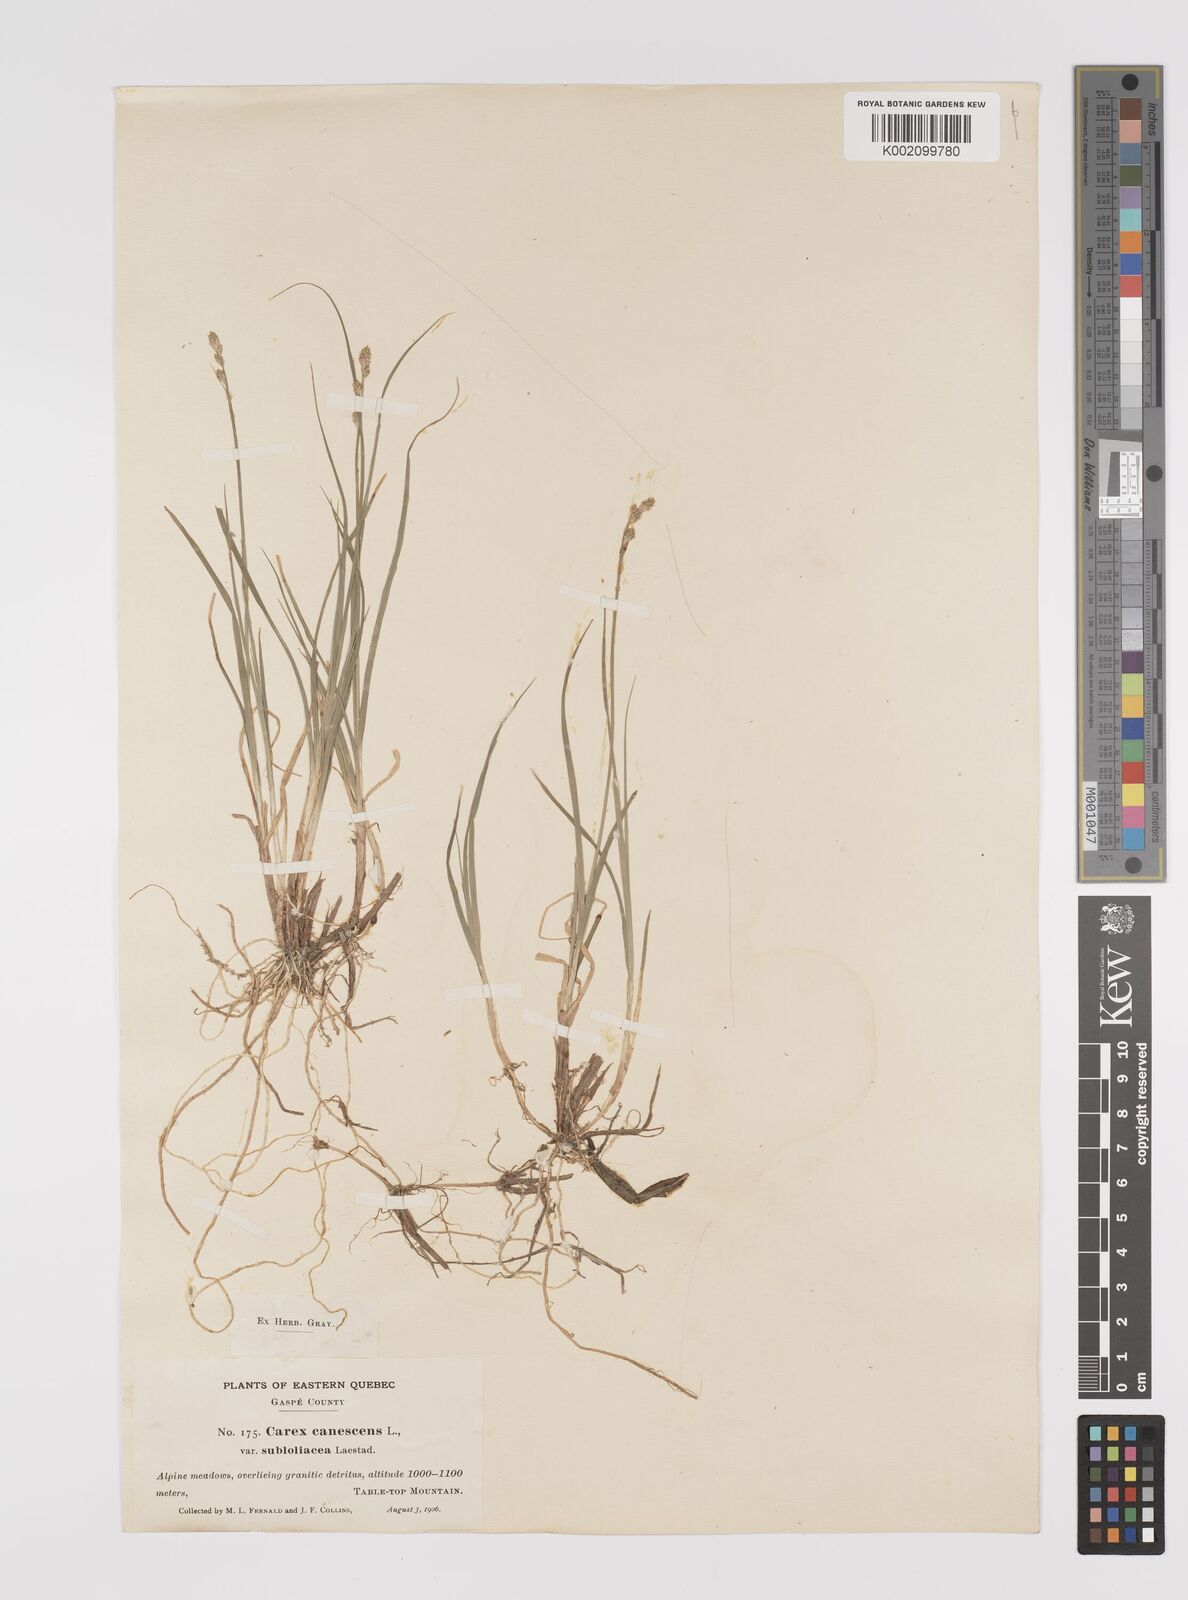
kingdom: Plantae
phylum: Tracheophyta
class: Liliopsida
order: Poales
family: Cyperaceae
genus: Carex
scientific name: Carex curta
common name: White sedge
